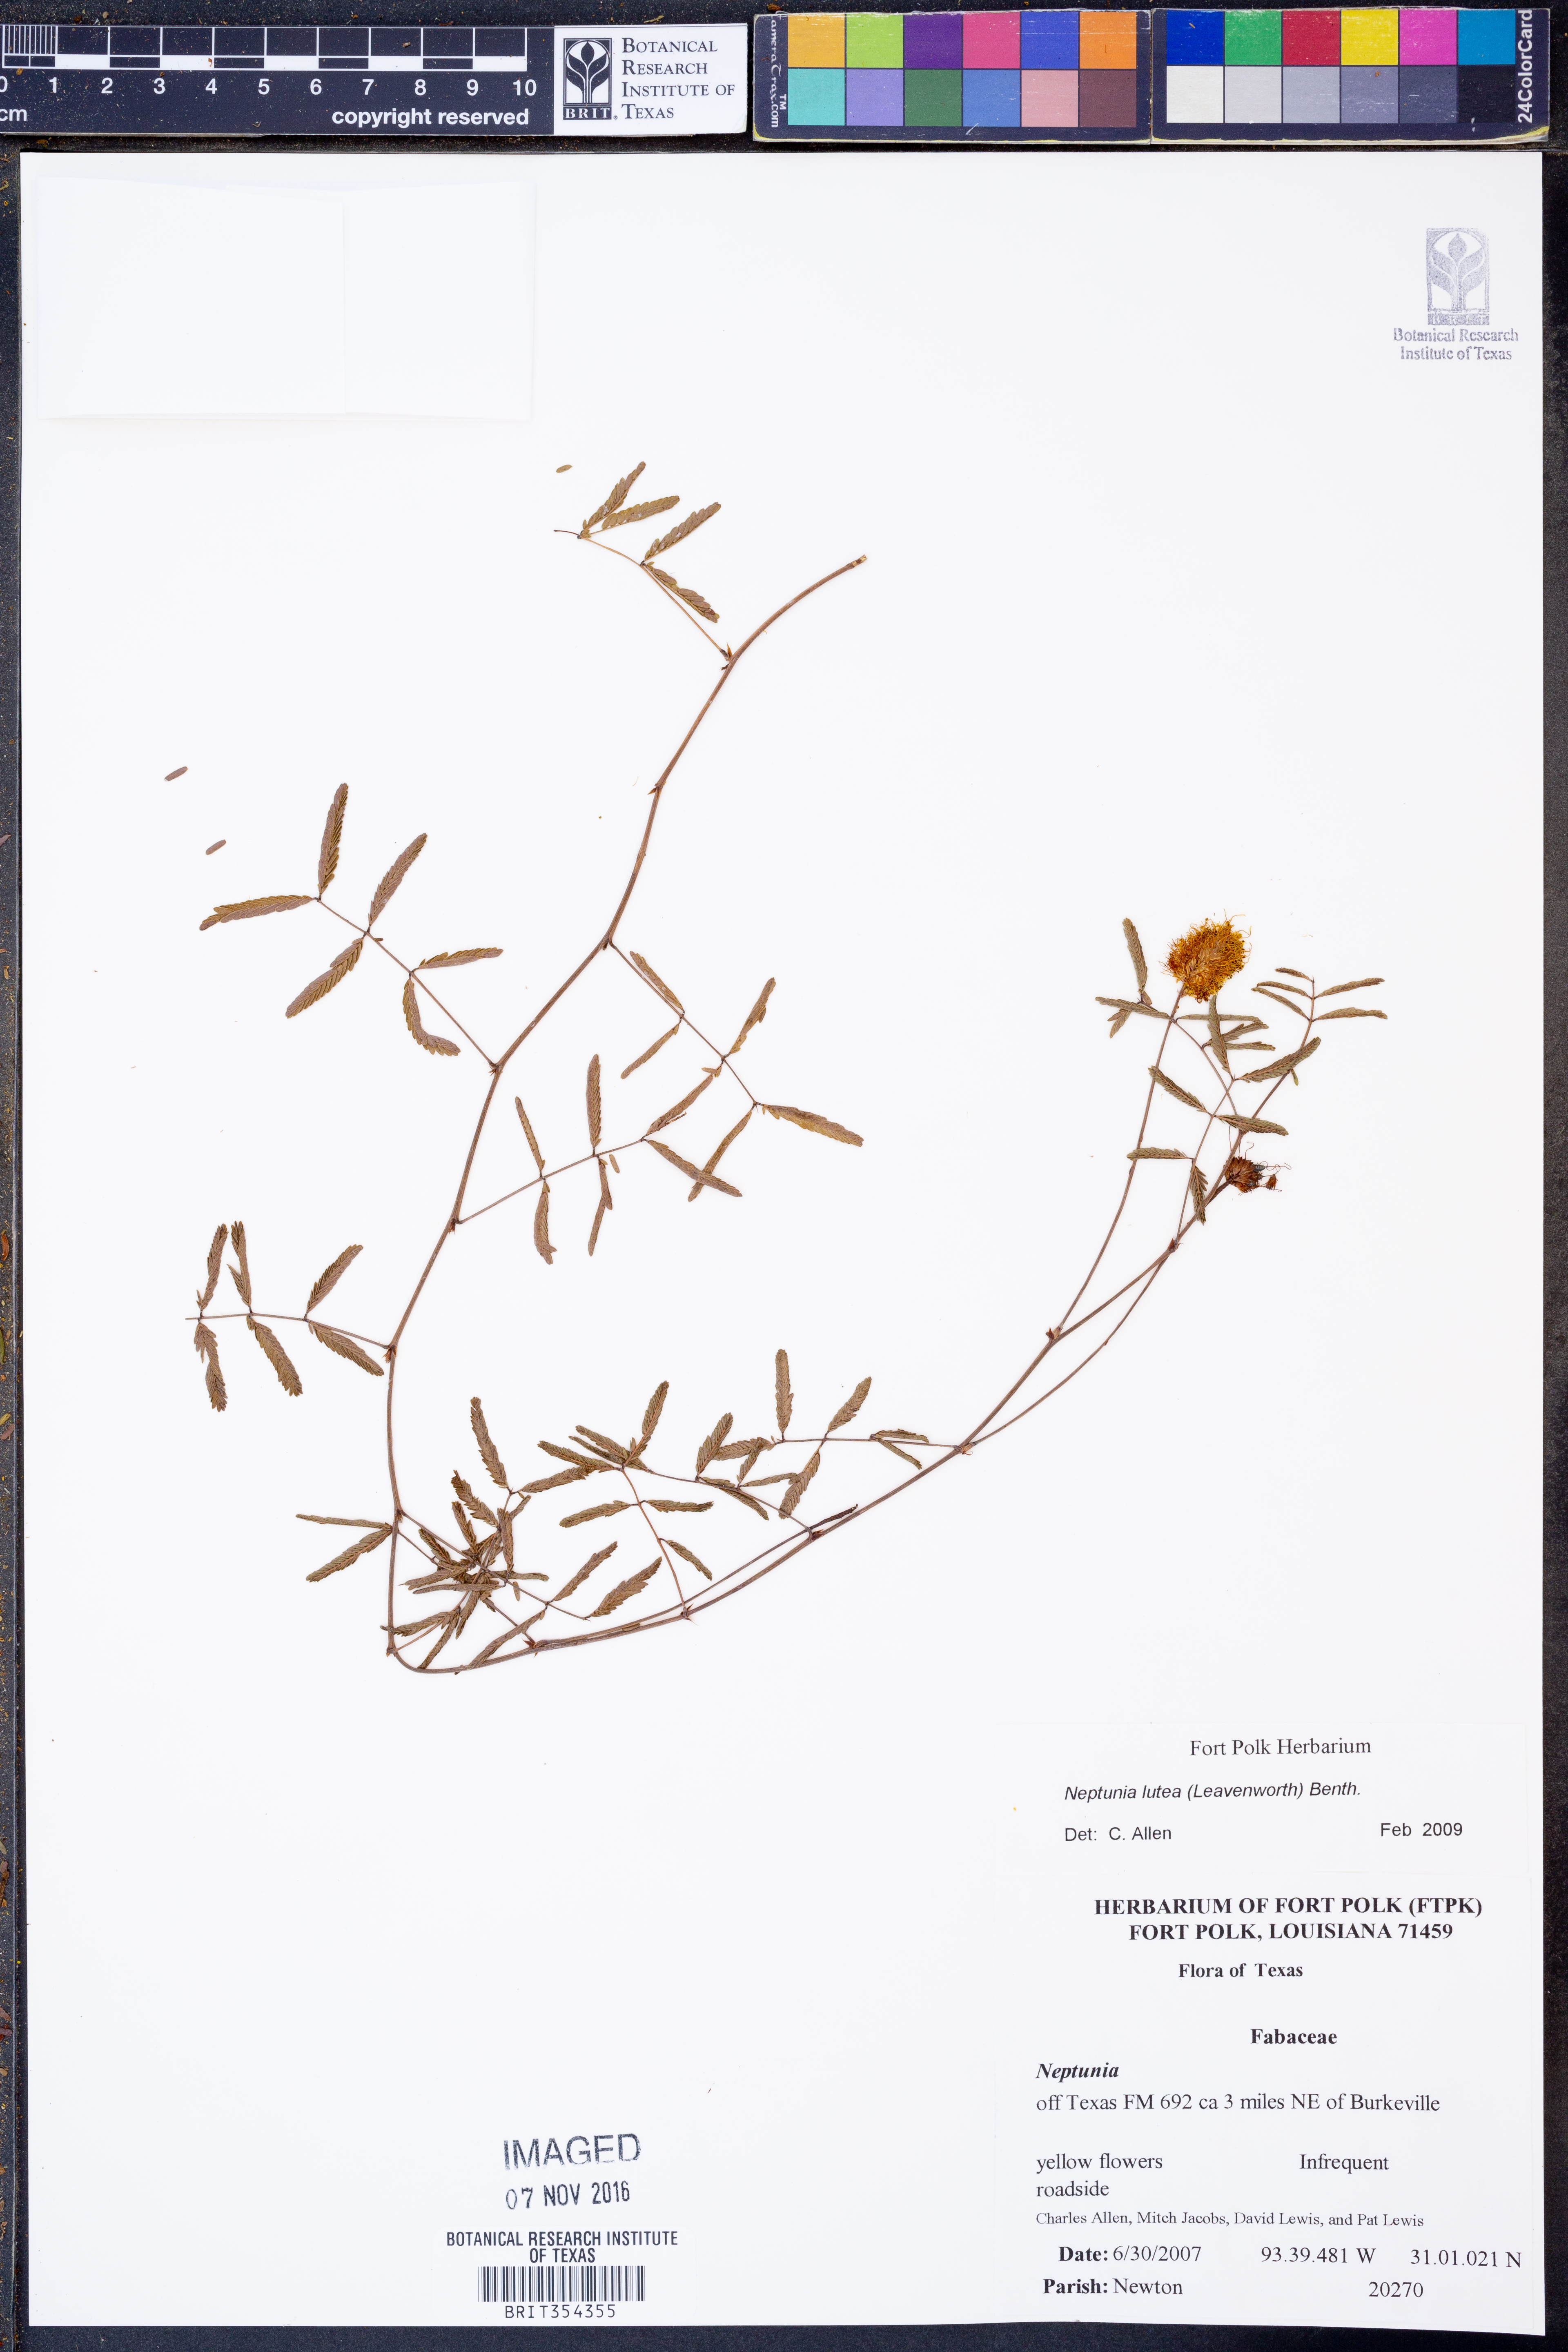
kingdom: Plantae
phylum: Tracheophyta
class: Magnoliopsida
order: Fabales
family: Fabaceae
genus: Neptunia
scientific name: Neptunia lutea
